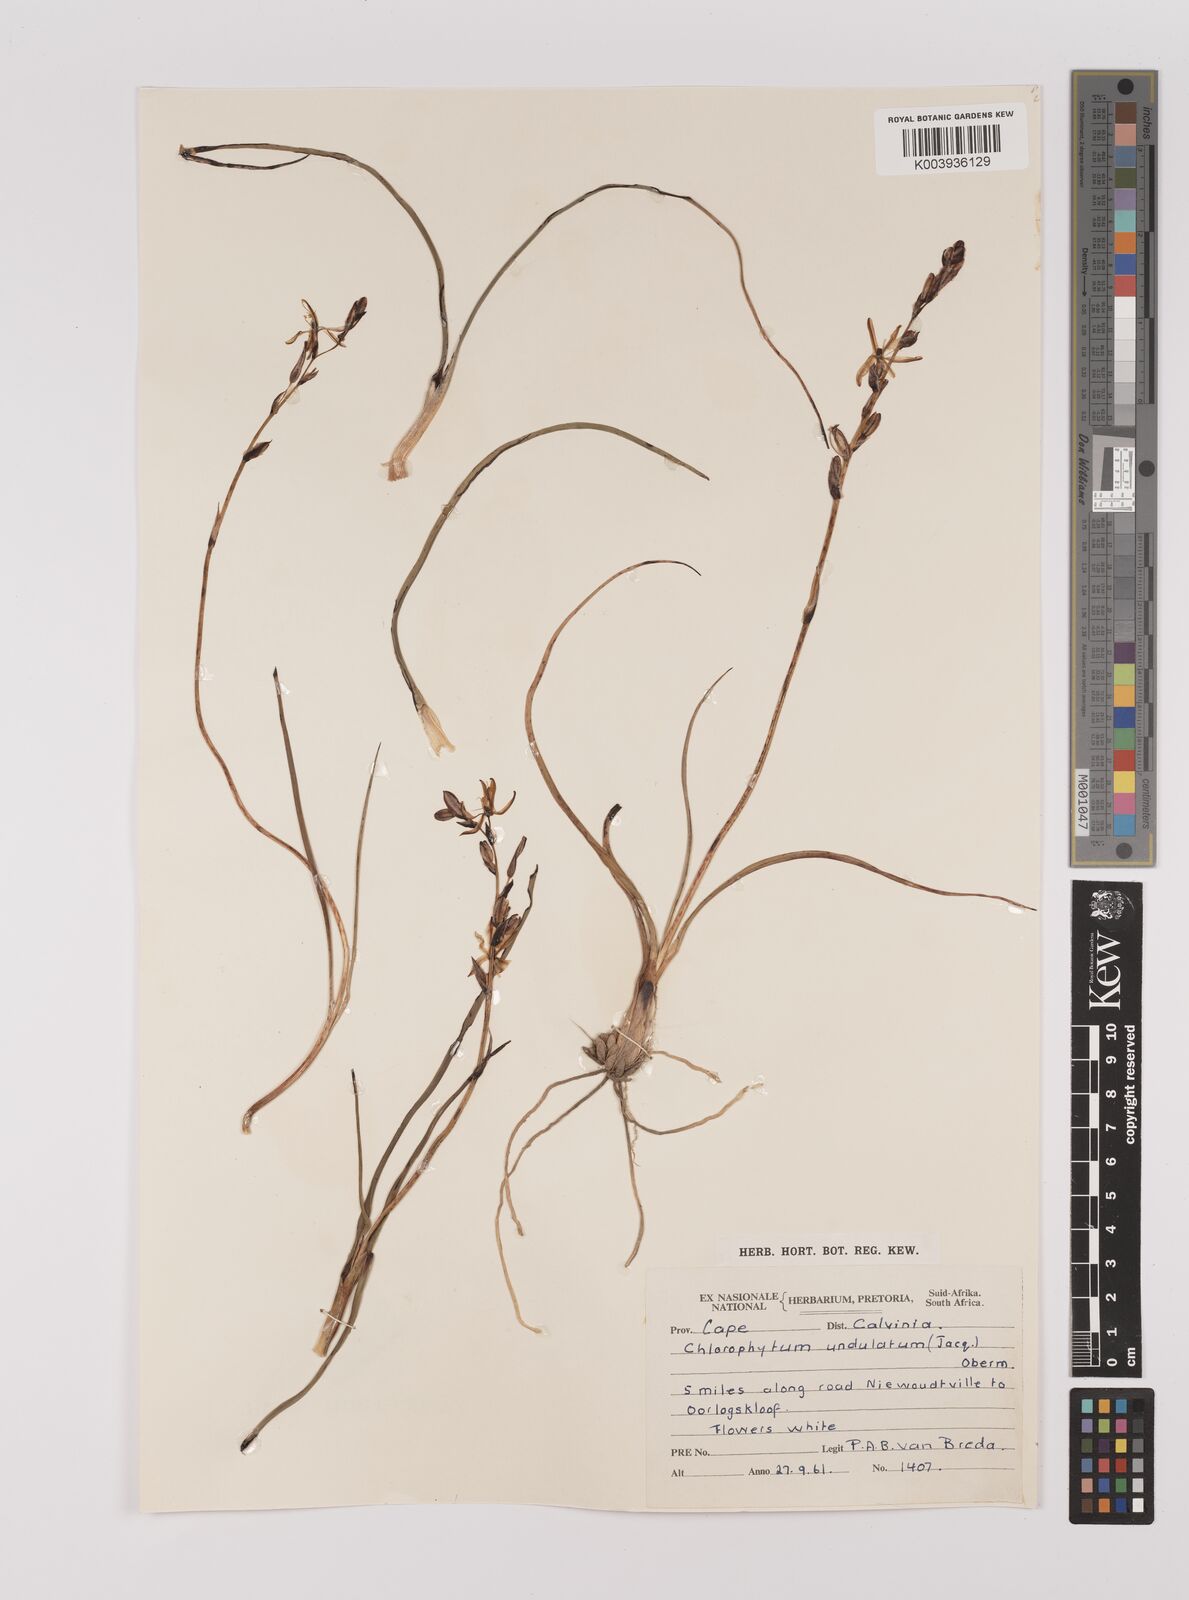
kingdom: Plantae
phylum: Tracheophyta
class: Liliopsida
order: Asparagales
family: Asparagaceae
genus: Chlorophytum
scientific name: Chlorophytum graminifolium
